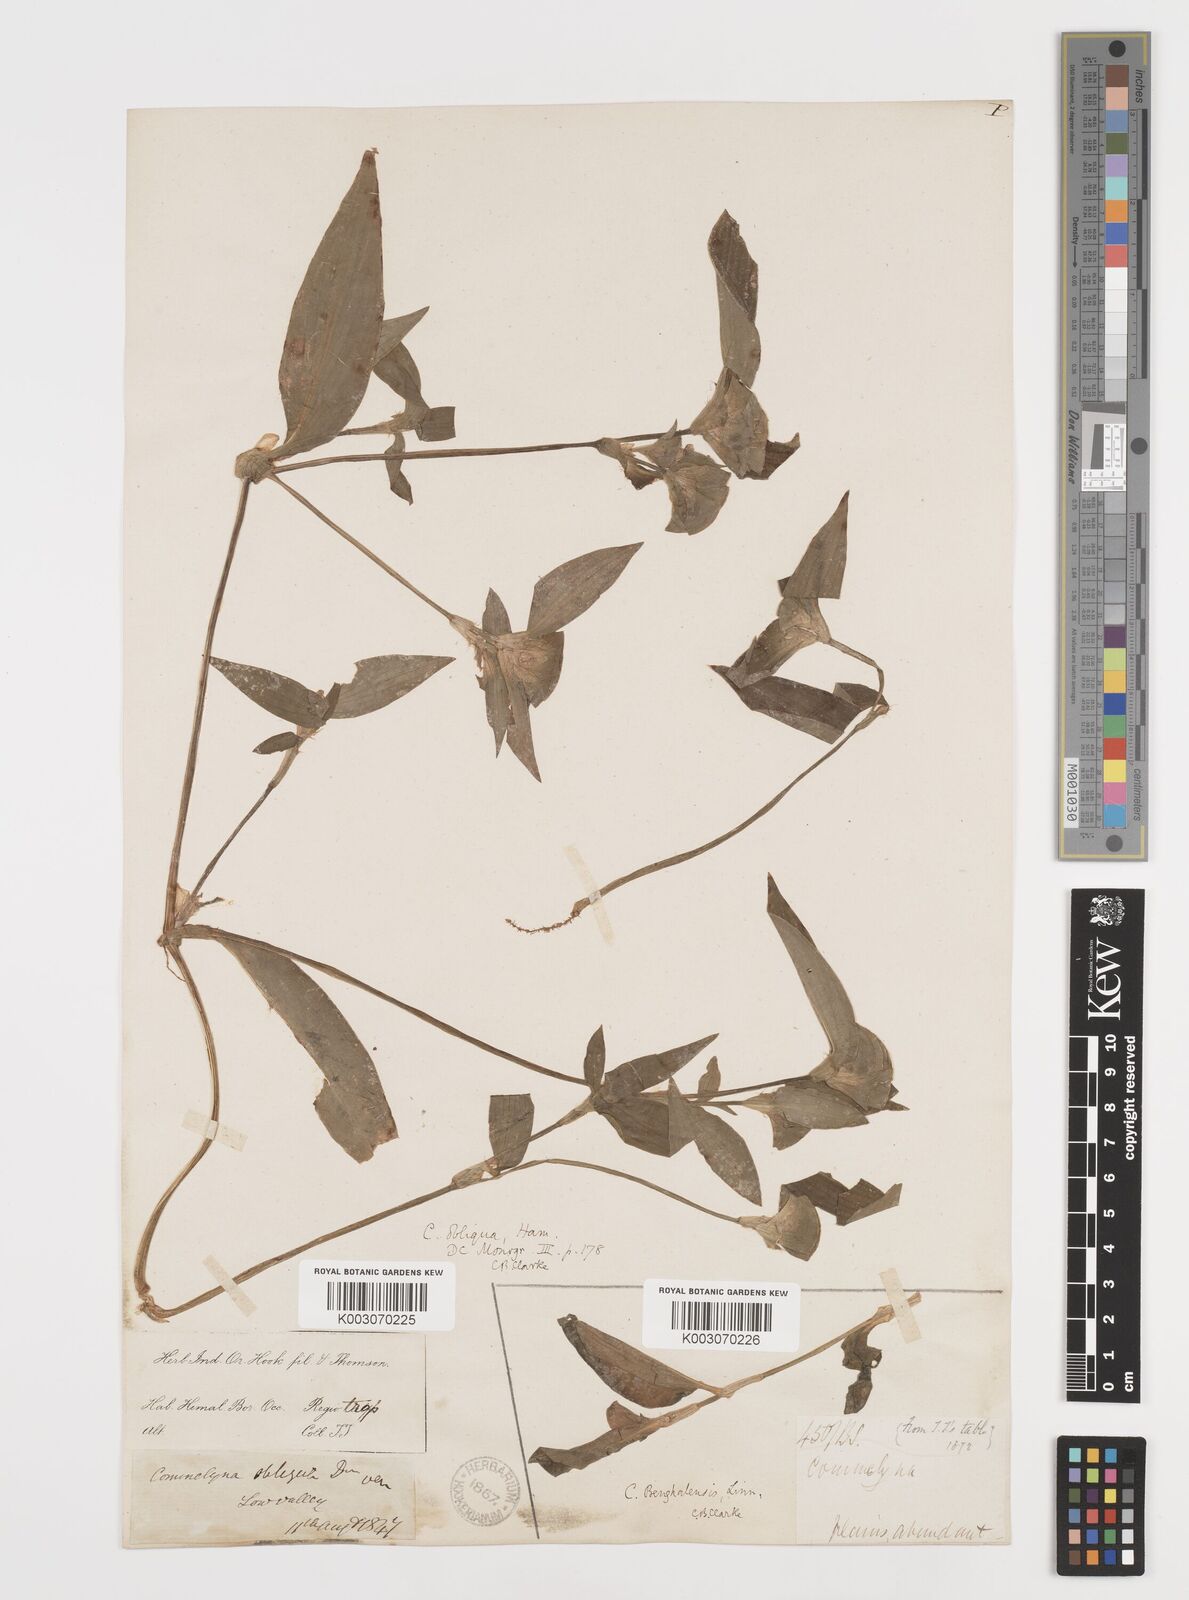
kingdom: Plantae
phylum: Tracheophyta
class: Liliopsida
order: Commelinales
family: Commelinaceae
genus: Commelina
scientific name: Commelina paludosa
